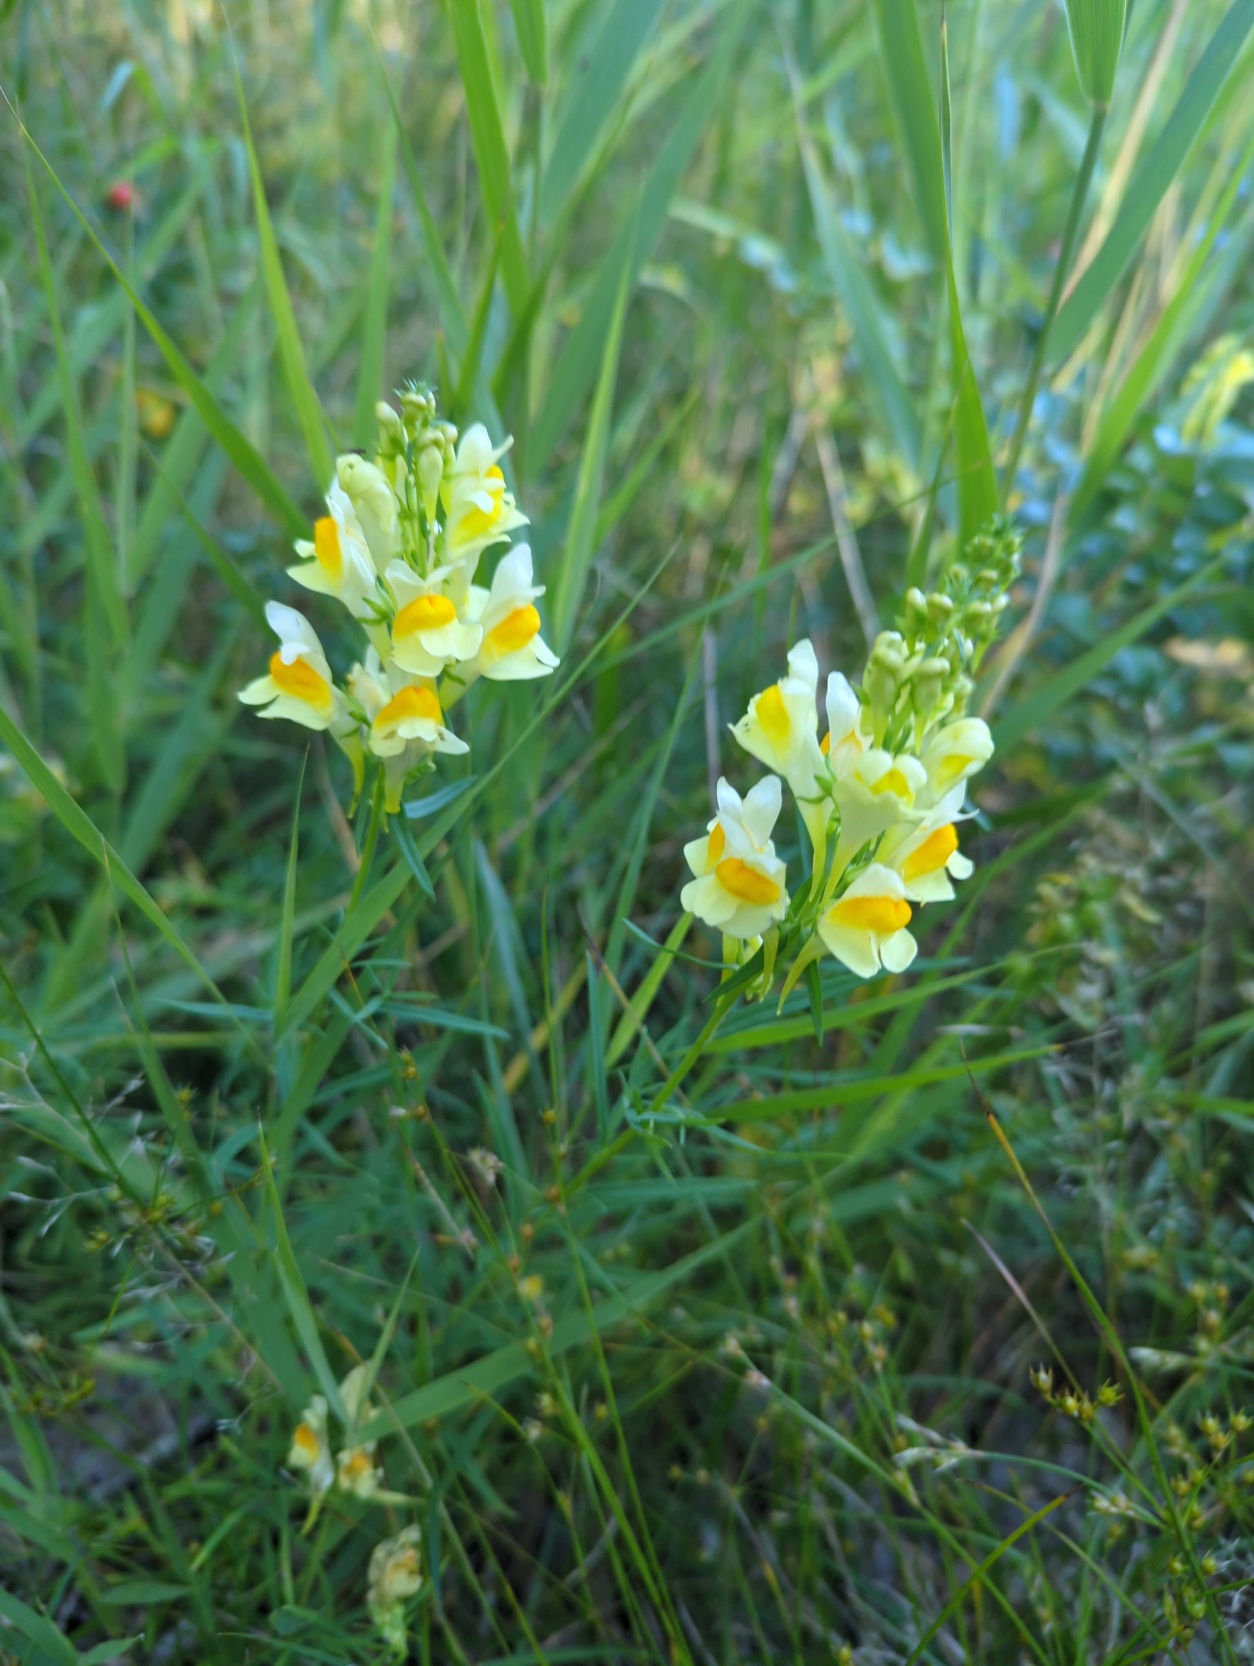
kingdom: Plantae
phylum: Tracheophyta
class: Magnoliopsida
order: Lamiales
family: Plantaginaceae
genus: Linaria
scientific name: Linaria vulgaris
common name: Almindelig torskemund
